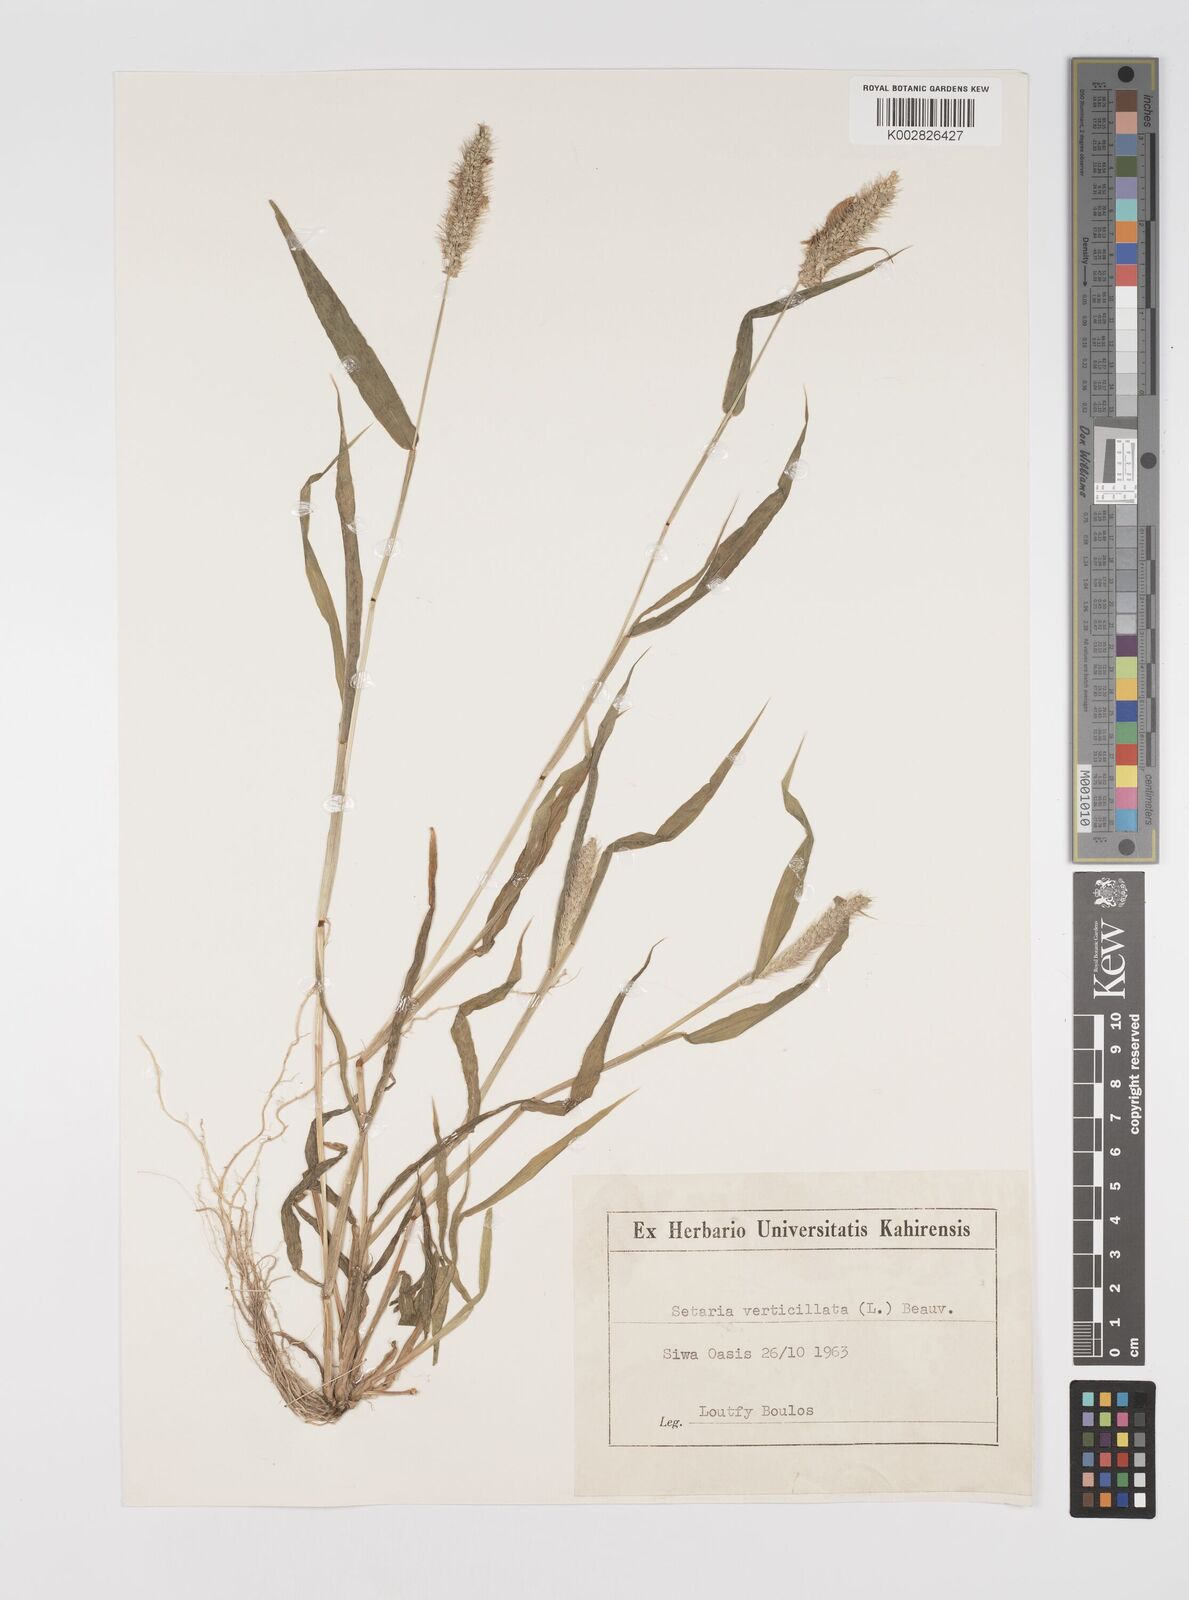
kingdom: Plantae
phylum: Tracheophyta
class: Liliopsida
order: Poales
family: Poaceae
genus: Setaria
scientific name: Setaria verticillata
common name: Hooked bristlegrass
